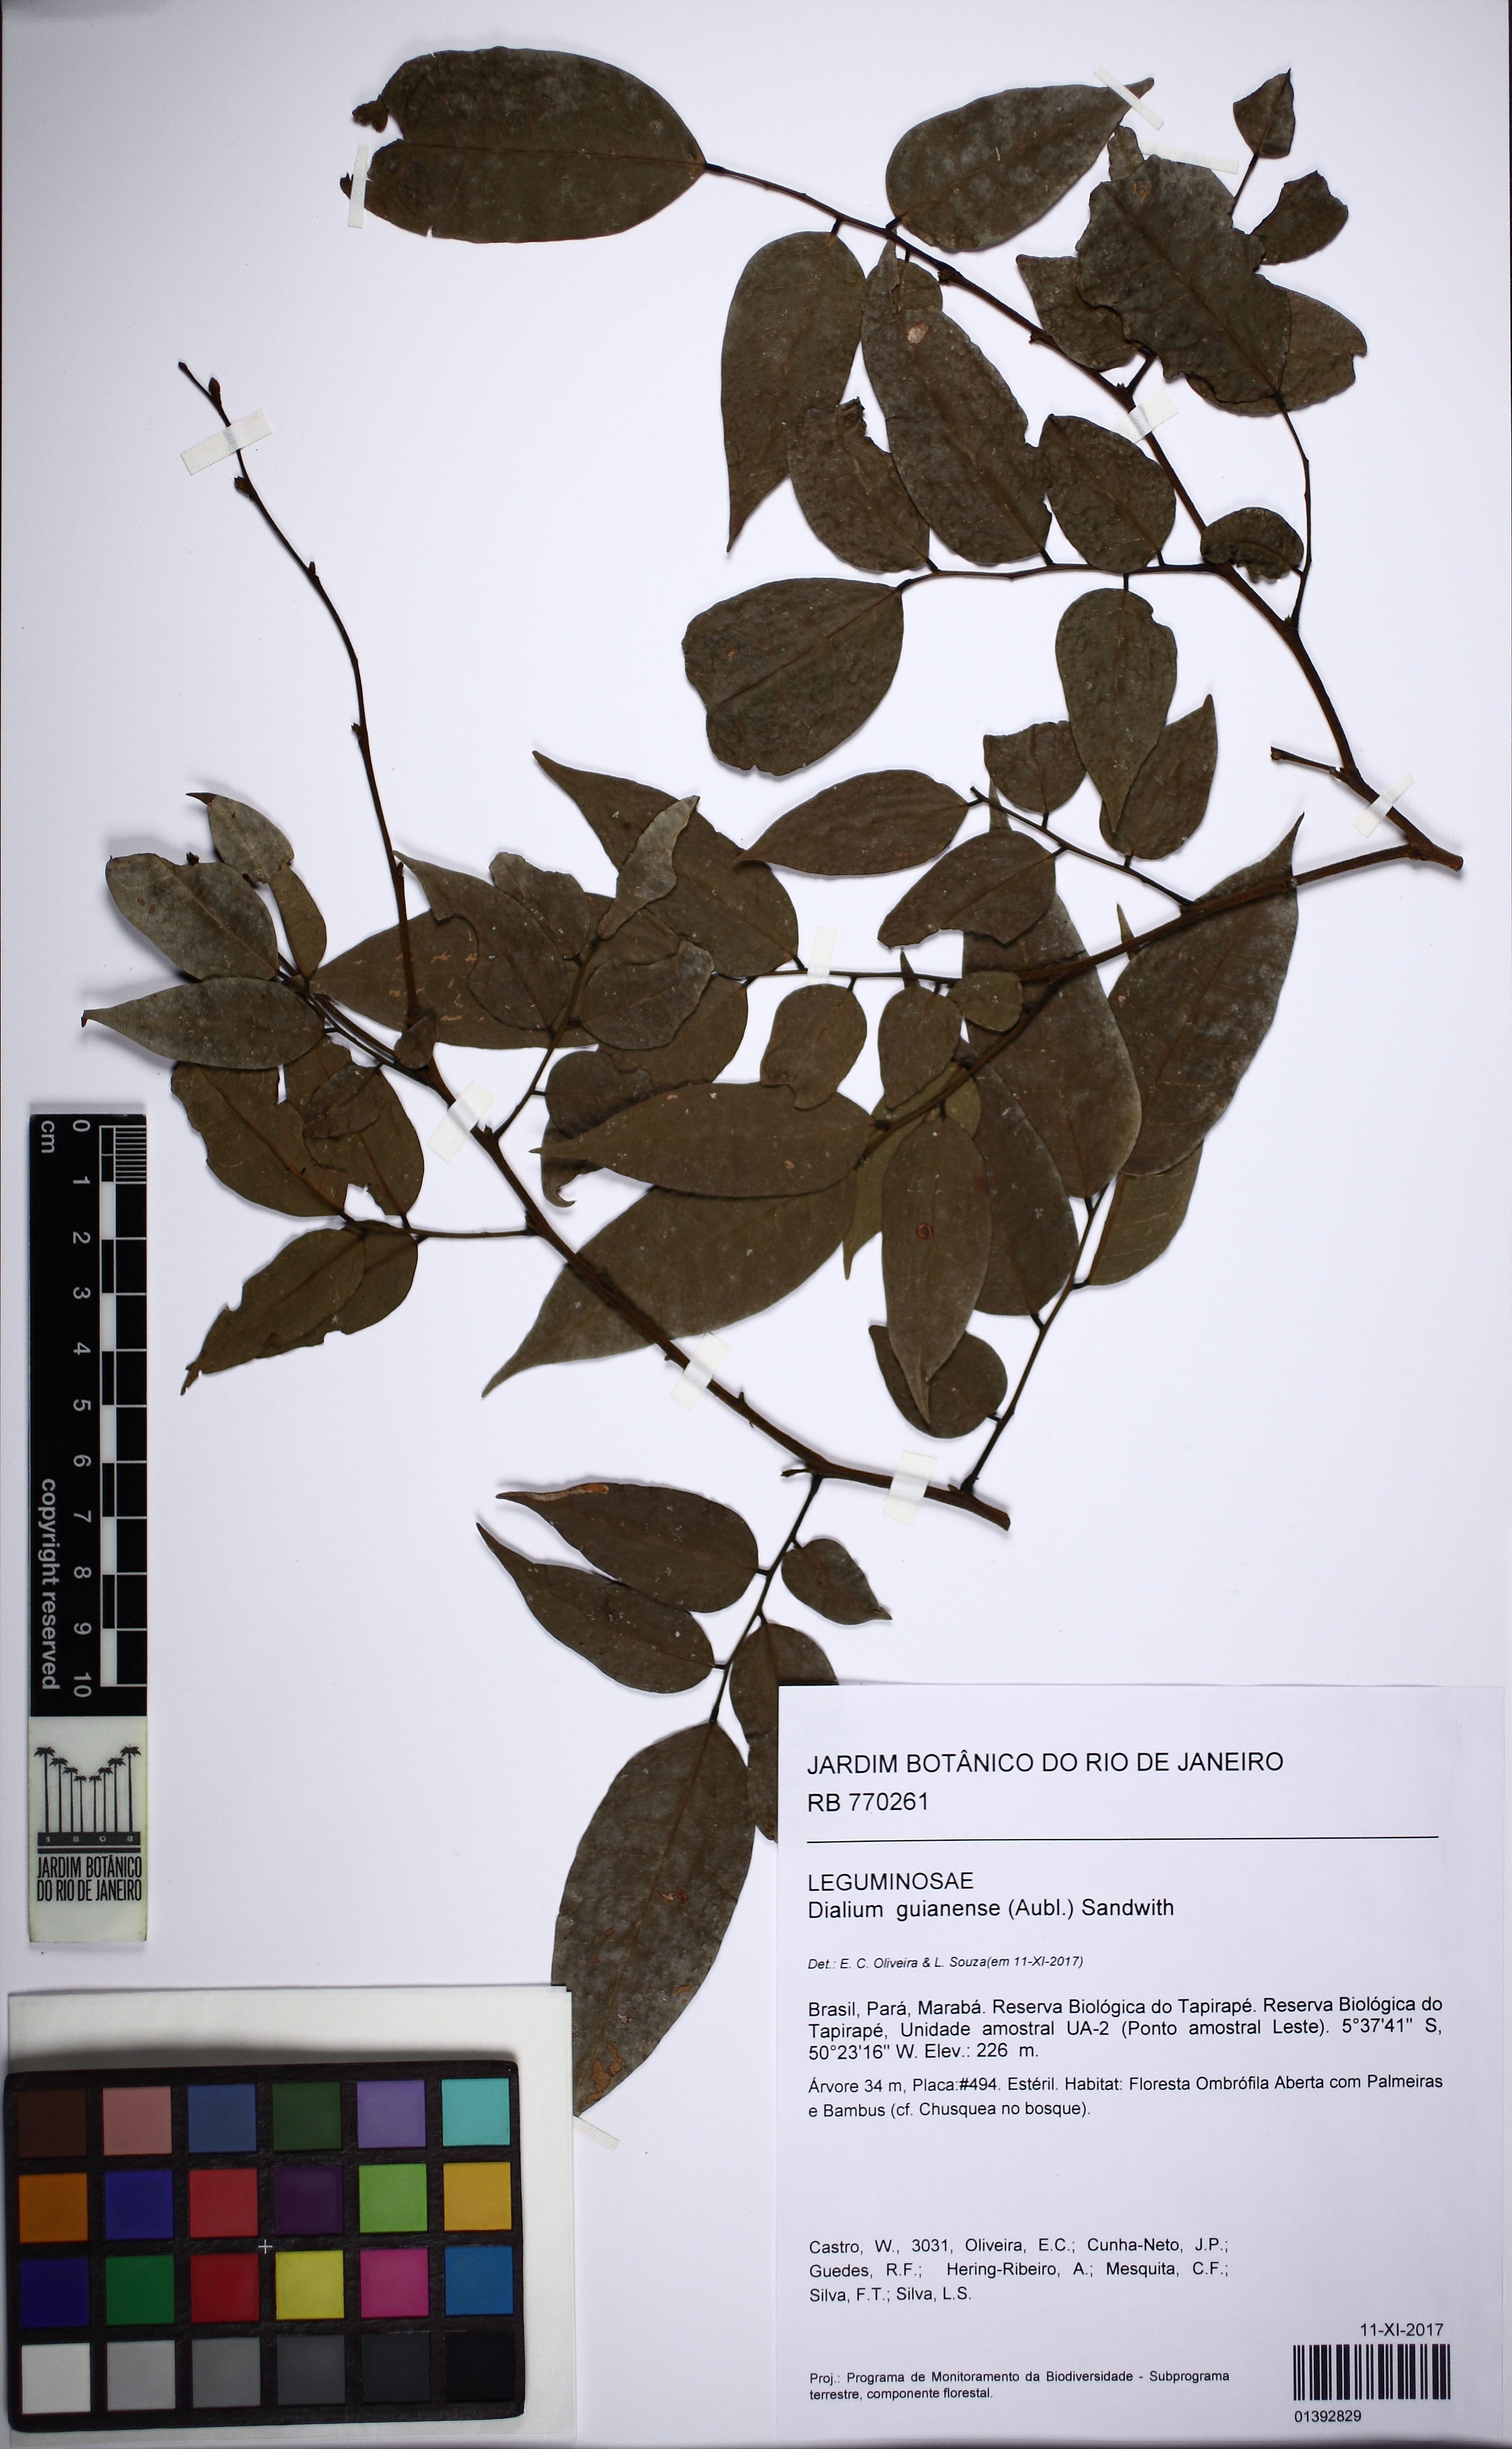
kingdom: Plantae
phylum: Tracheophyta
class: Magnoliopsida
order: Fabales
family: Fabaceae
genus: Dialium
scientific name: Dialium guianense
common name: Ironwood
